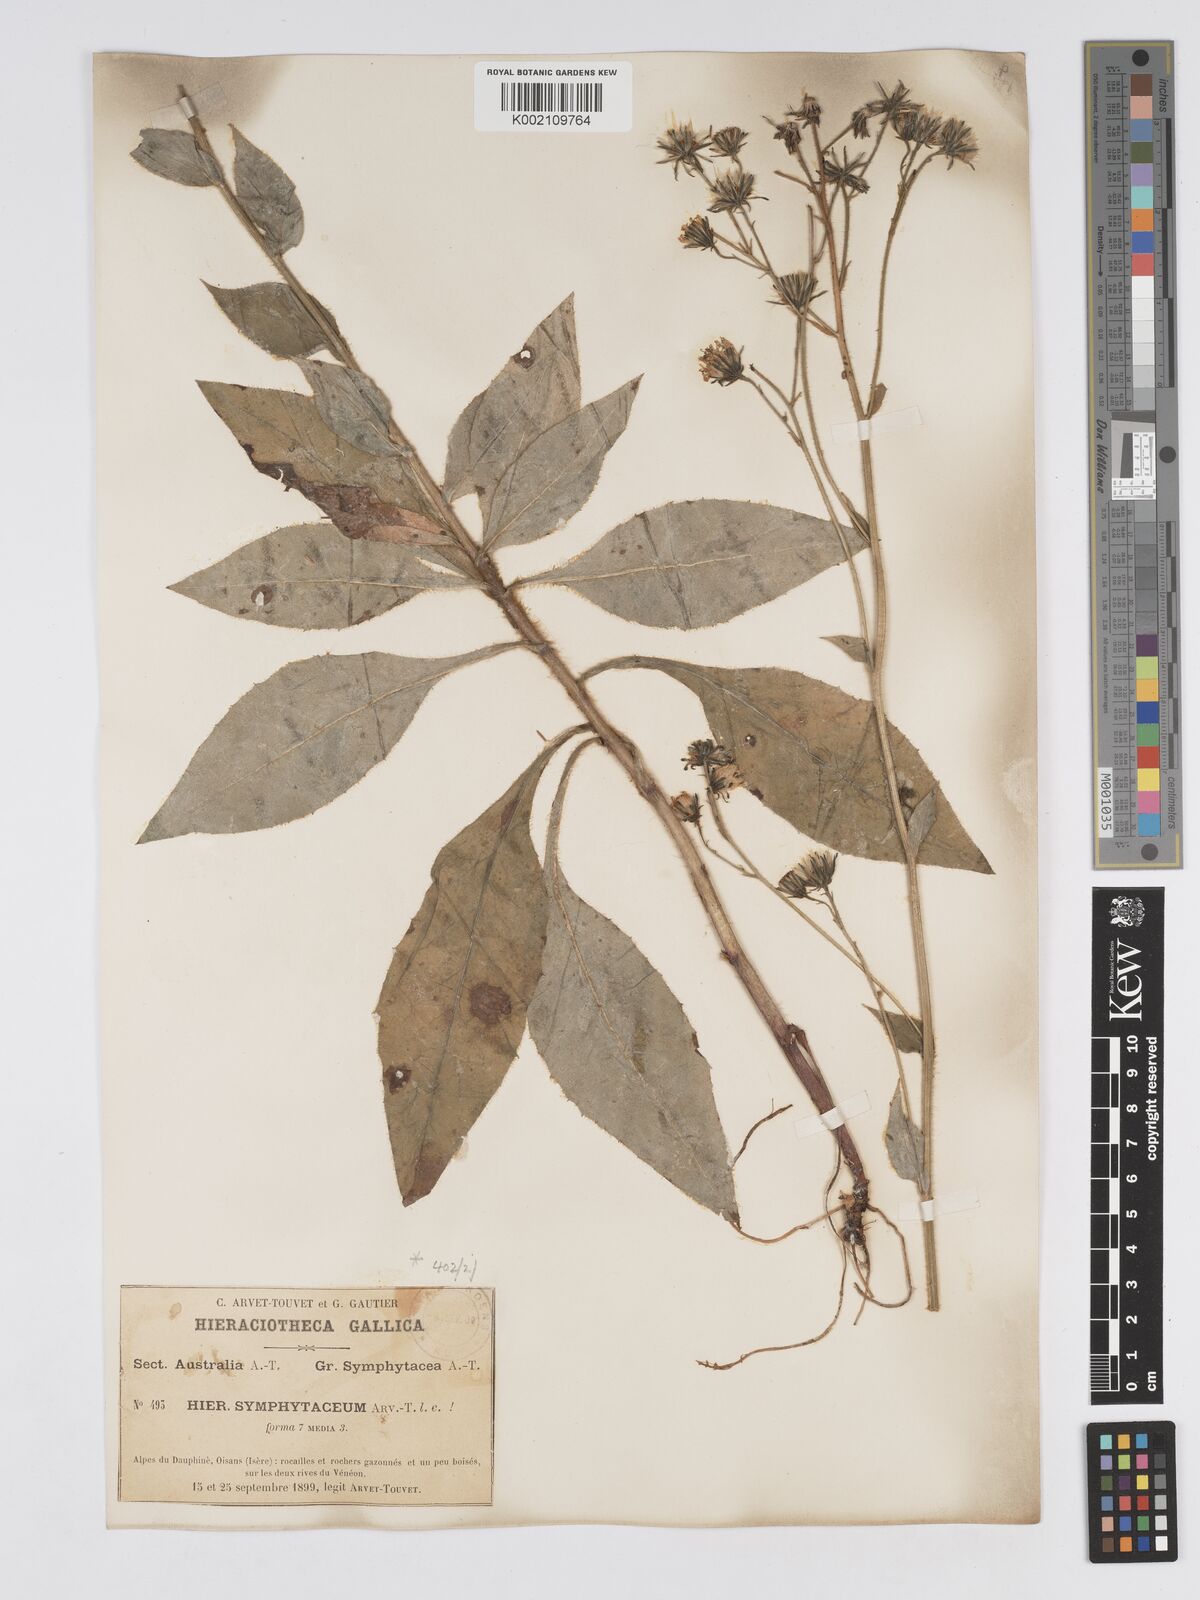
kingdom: Plantae
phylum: Tracheophyta
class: Magnoliopsida
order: Asterales
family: Asteraceae
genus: Hieracium
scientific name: Hieracium symphytaceum
